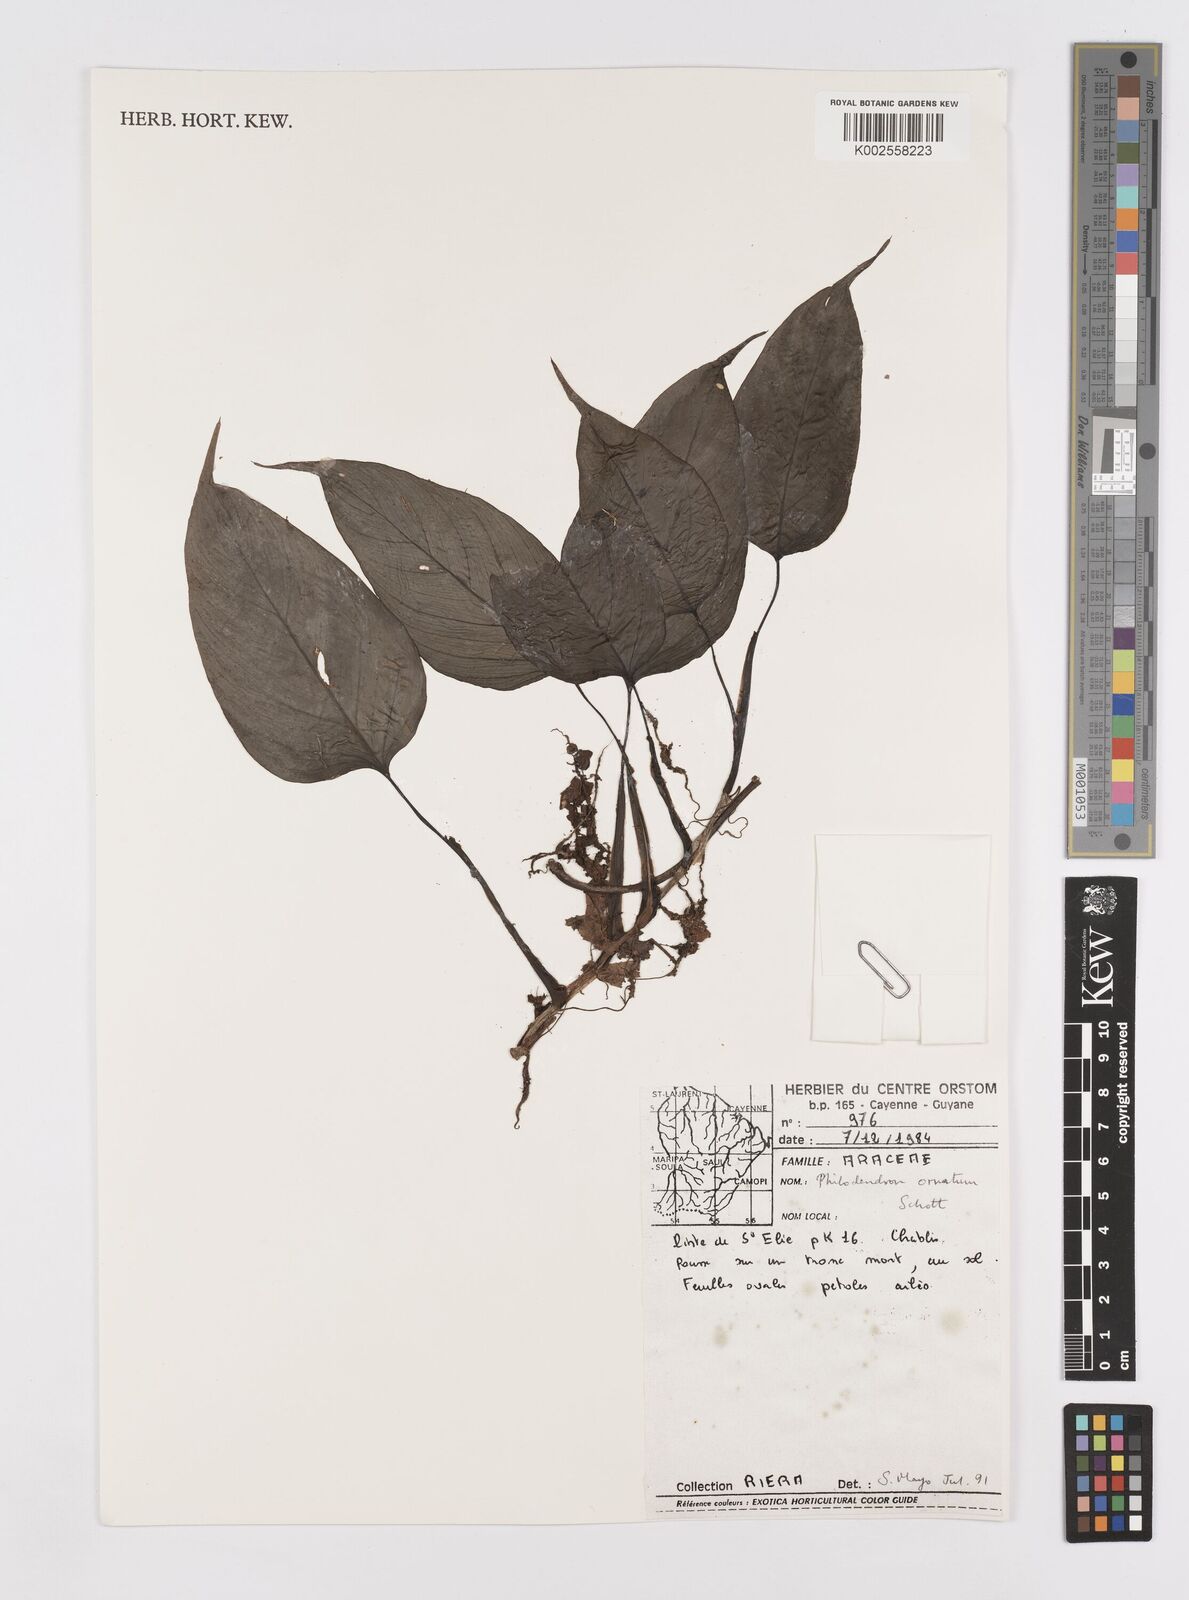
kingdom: Plantae
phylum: Tracheophyta
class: Liliopsida
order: Alismatales
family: Araceae
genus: Philodendron
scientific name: Philodendron ornatum
